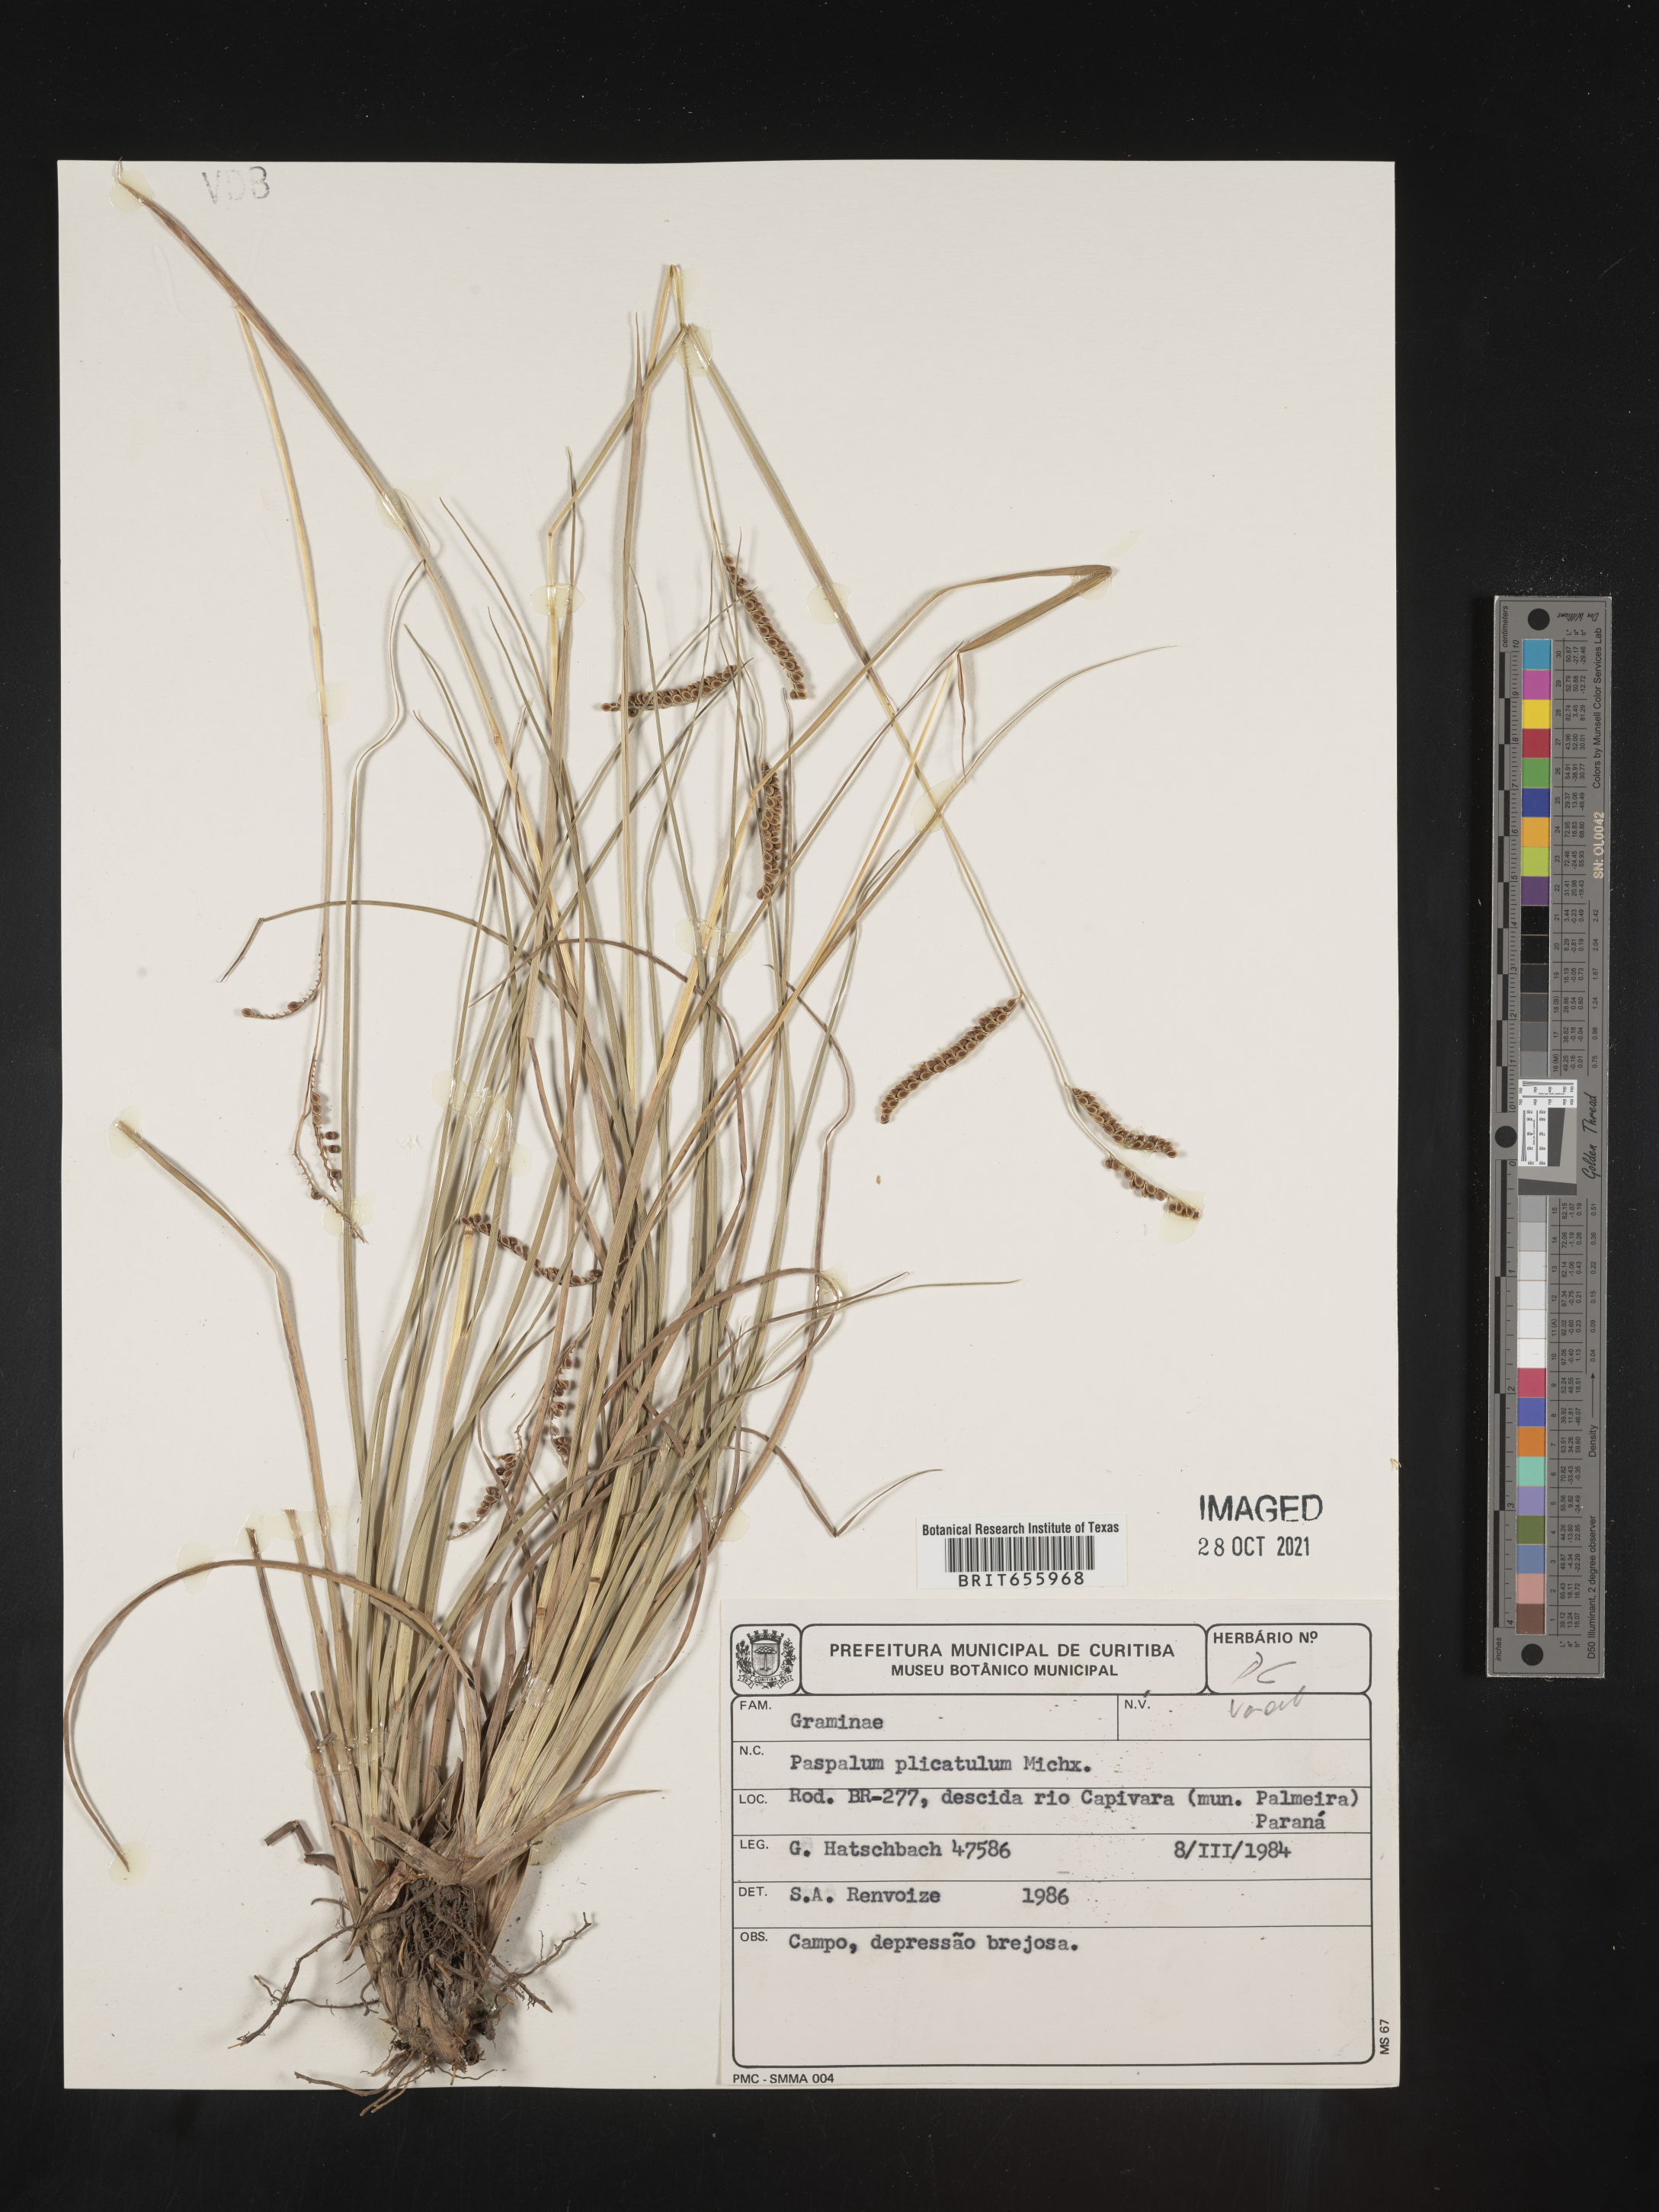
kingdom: Plantae
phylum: Tracheophyta
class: Liliopsida
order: Poales
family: Poaceae
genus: Paspalum
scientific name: Paspalum
